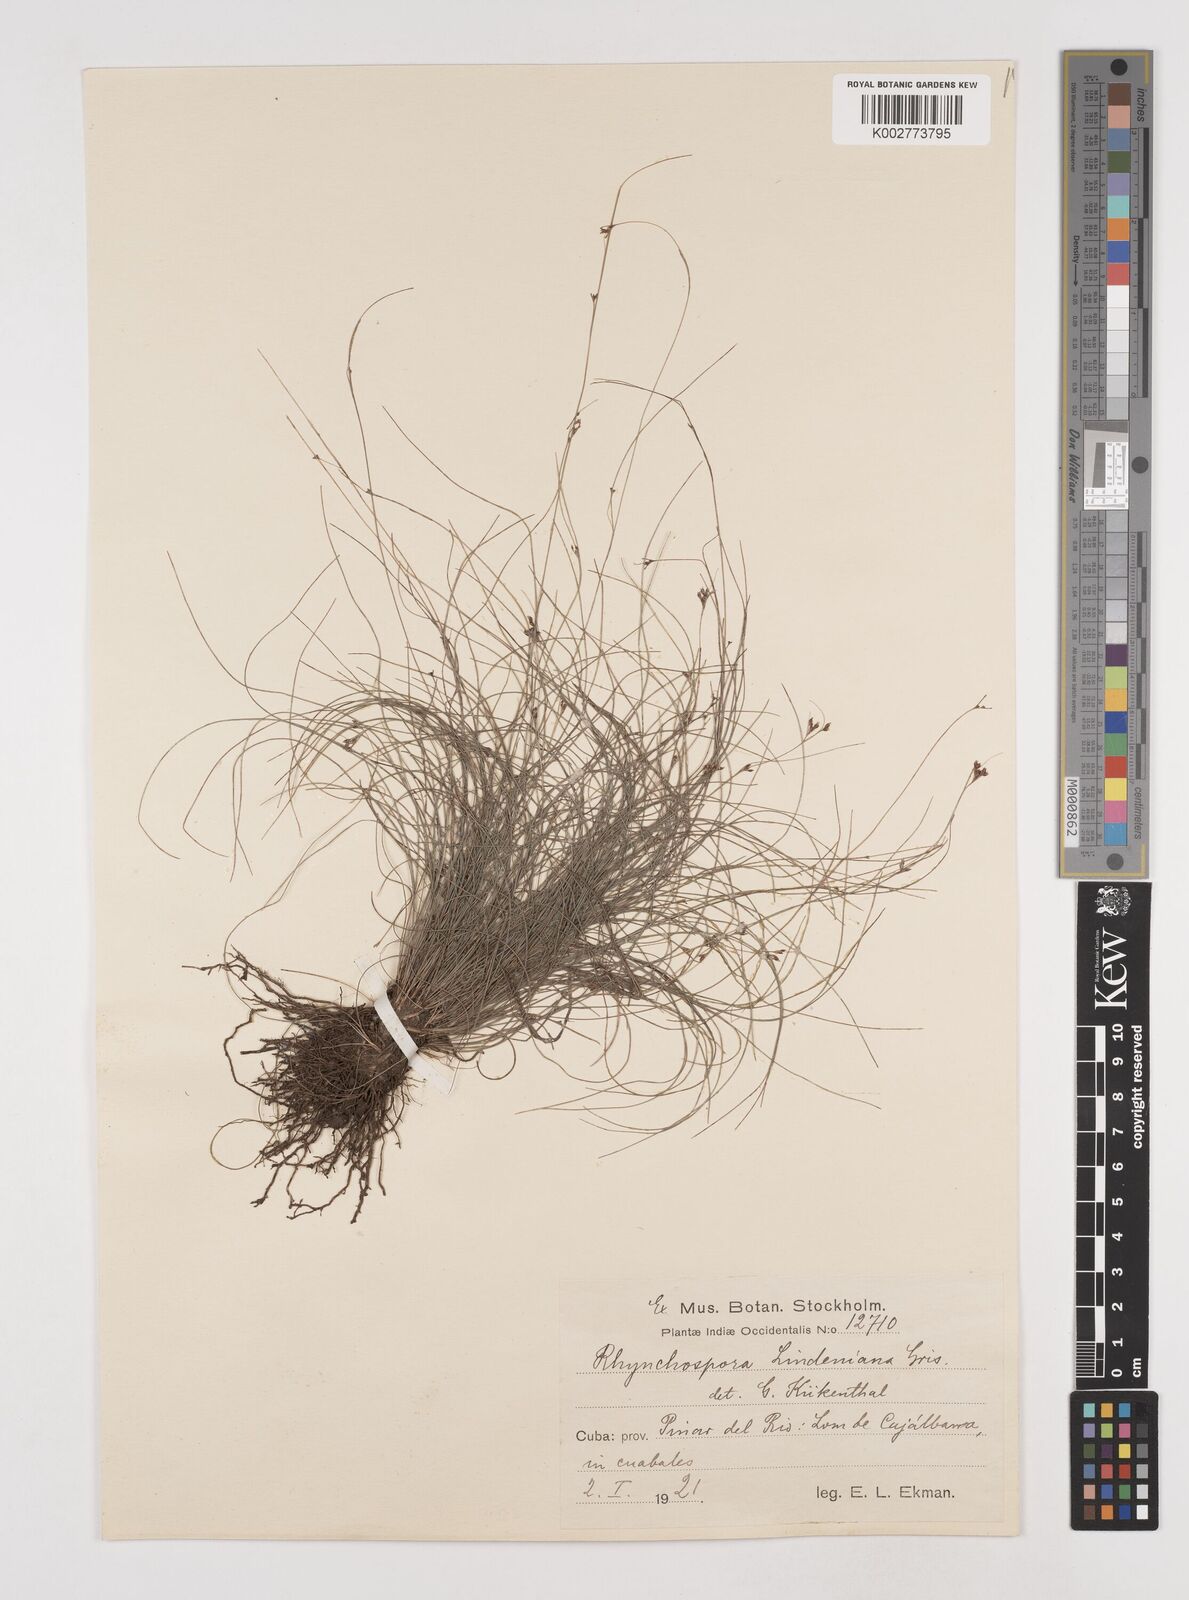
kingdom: Plantae
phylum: Tracheophyta
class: Liliopsida
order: Poales
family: Cyperaceae
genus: Rhynchospora
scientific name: Rhynchospora lindeniana
